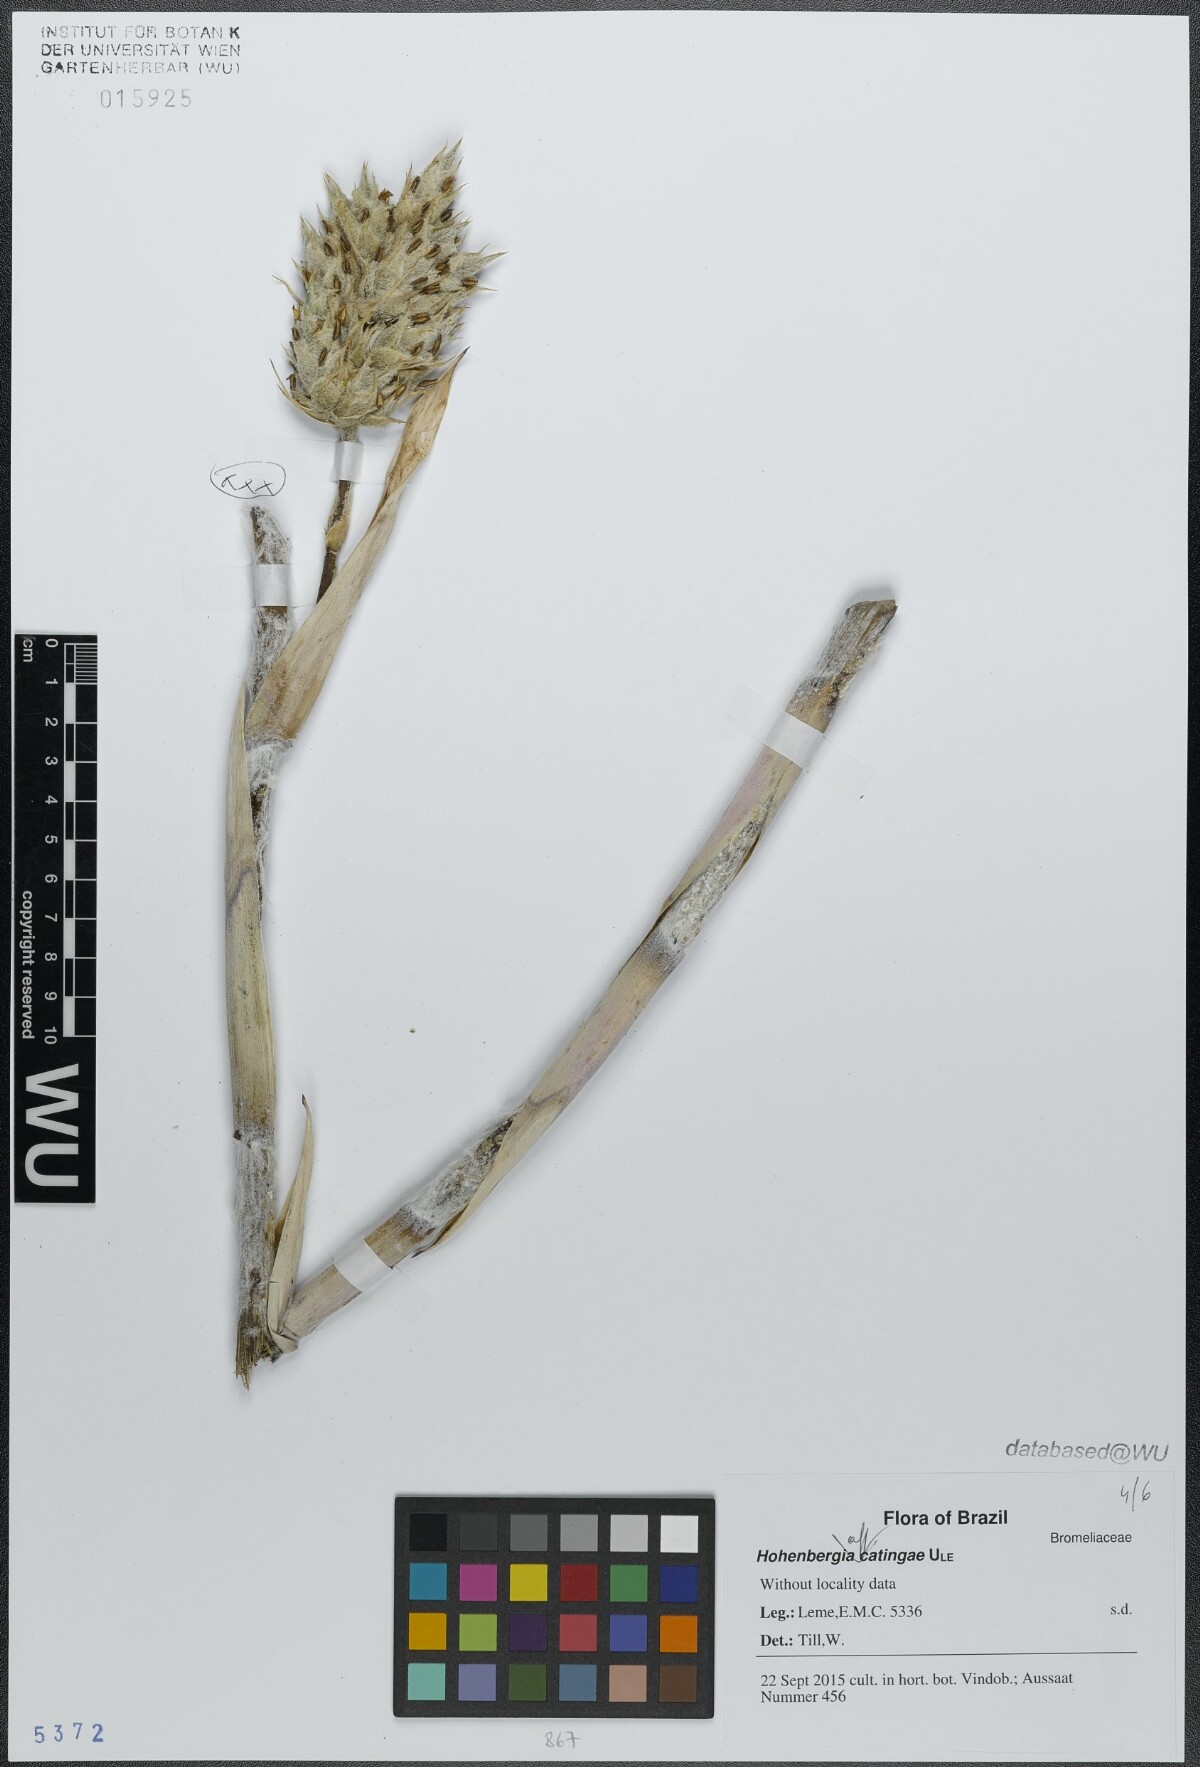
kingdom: Plantae
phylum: Tracheophyta
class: Liliopsida
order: Poales
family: Bromeliaceae
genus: Hohenbergia
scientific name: Hohenbergia catingae
